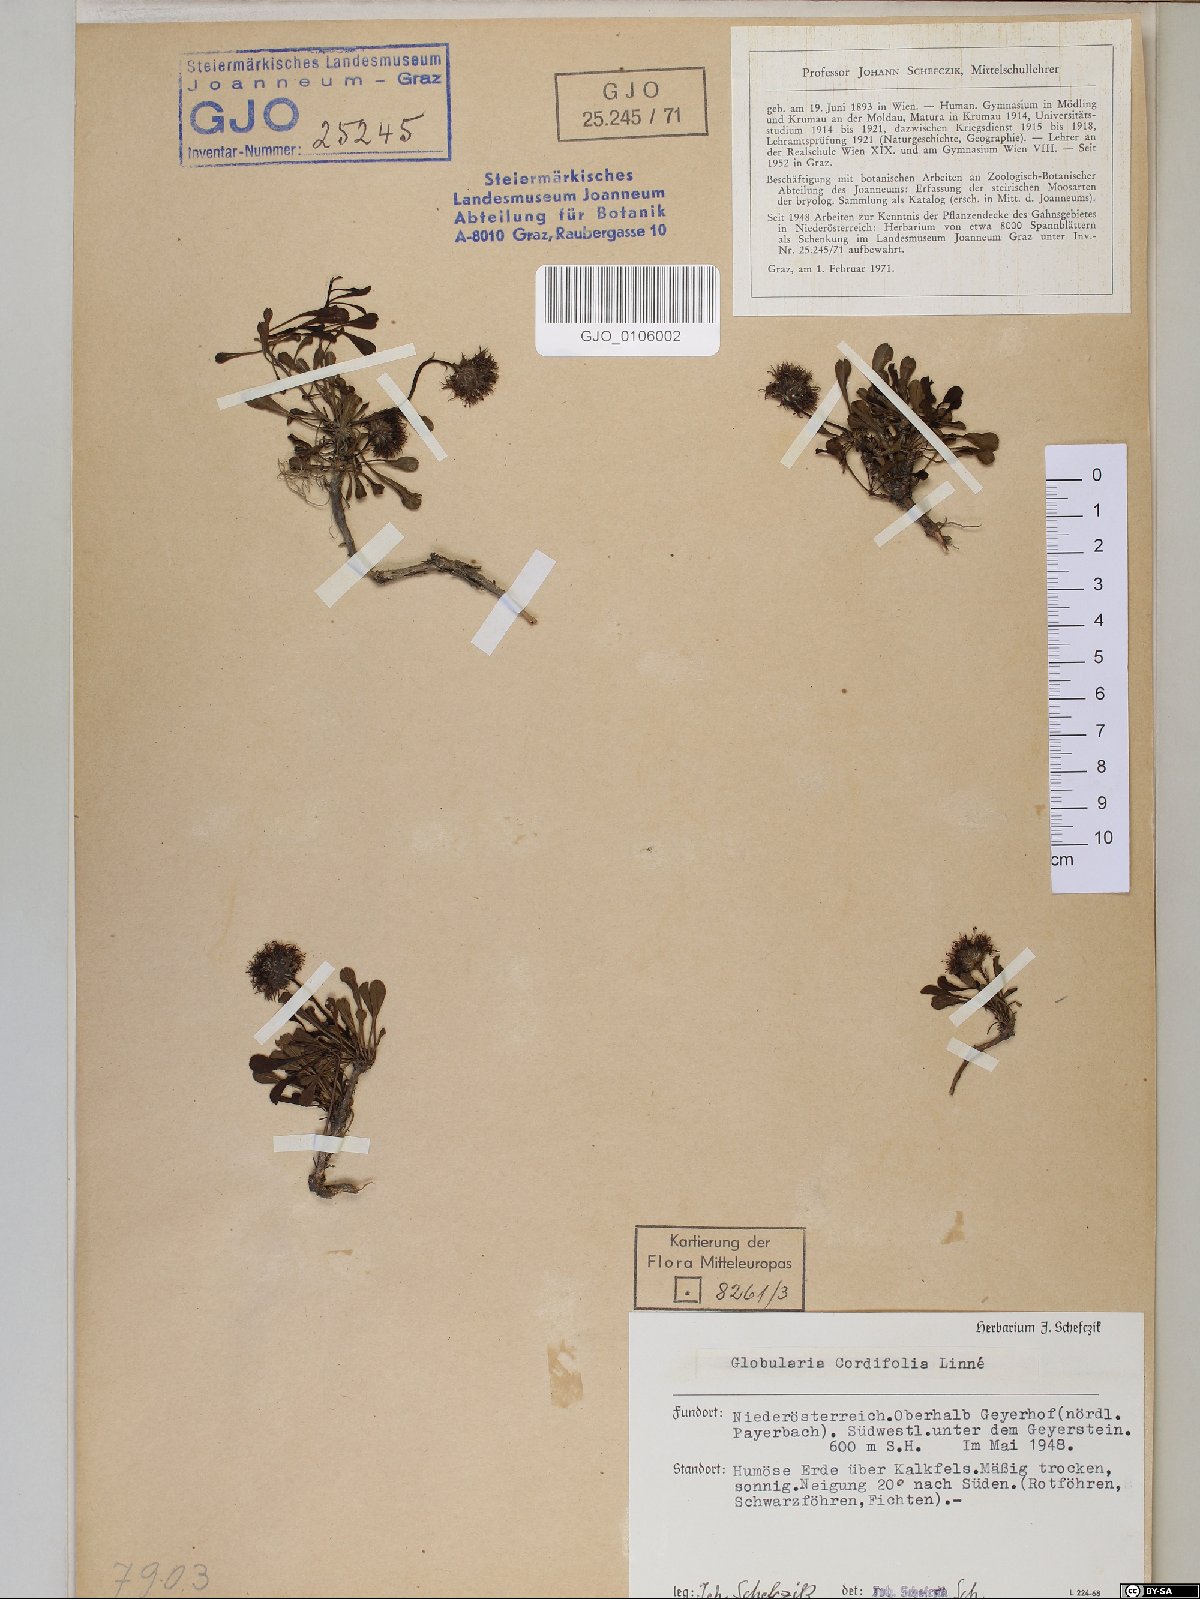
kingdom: Plantae
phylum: Tracheophyta
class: Magnoliopsida
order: Lamiales
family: Plantaginaceae
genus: Globularia
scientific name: Globularia cordifolia
